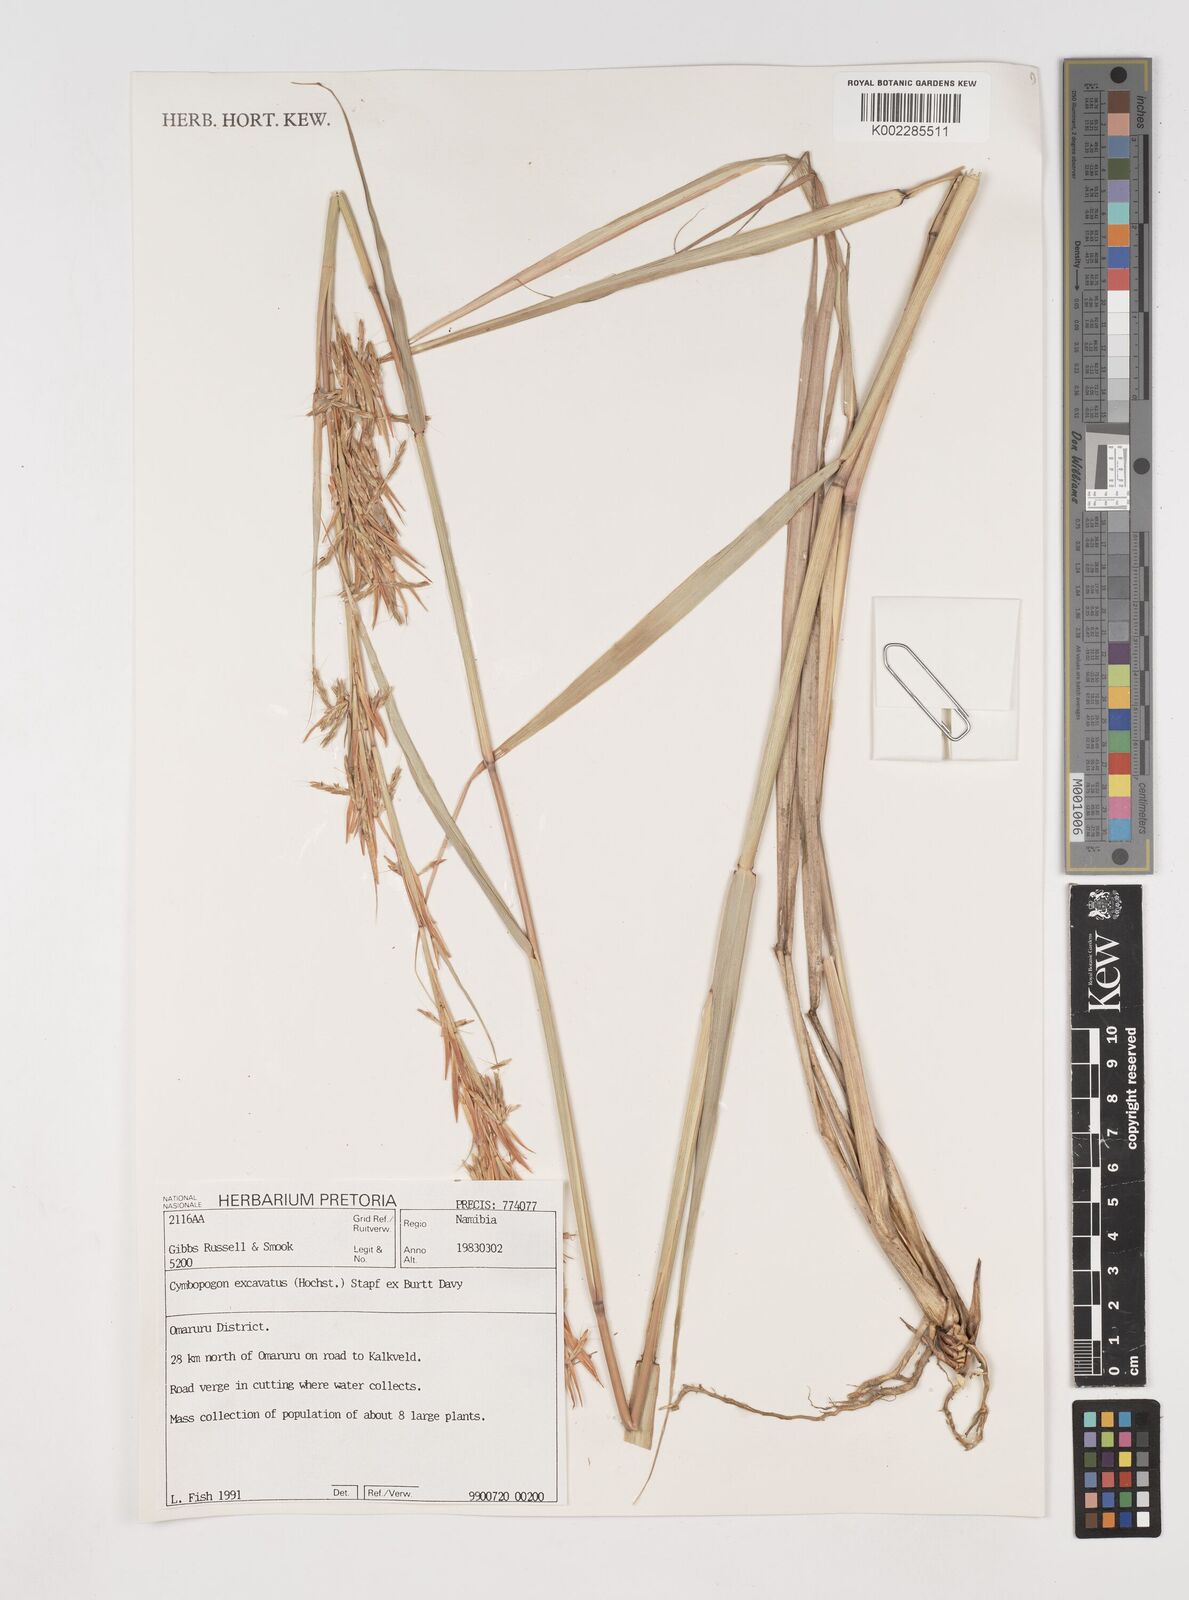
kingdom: Plantae
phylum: Tracheophyta
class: Liliopsida
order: Poales
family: Poaceae
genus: Cymbopogon
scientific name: Cymbopogon caesius
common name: Kachi grass
